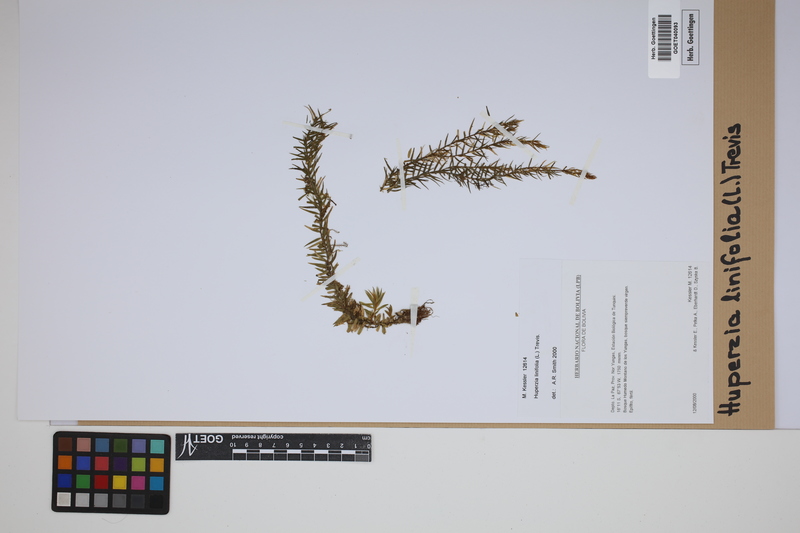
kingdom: Plantae
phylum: Tracheophyta
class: Lycopodiopsida
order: Lycopodiales
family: Lycopodiaceae
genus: Phlegmariurus
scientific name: Phlegmariurus linifolius
